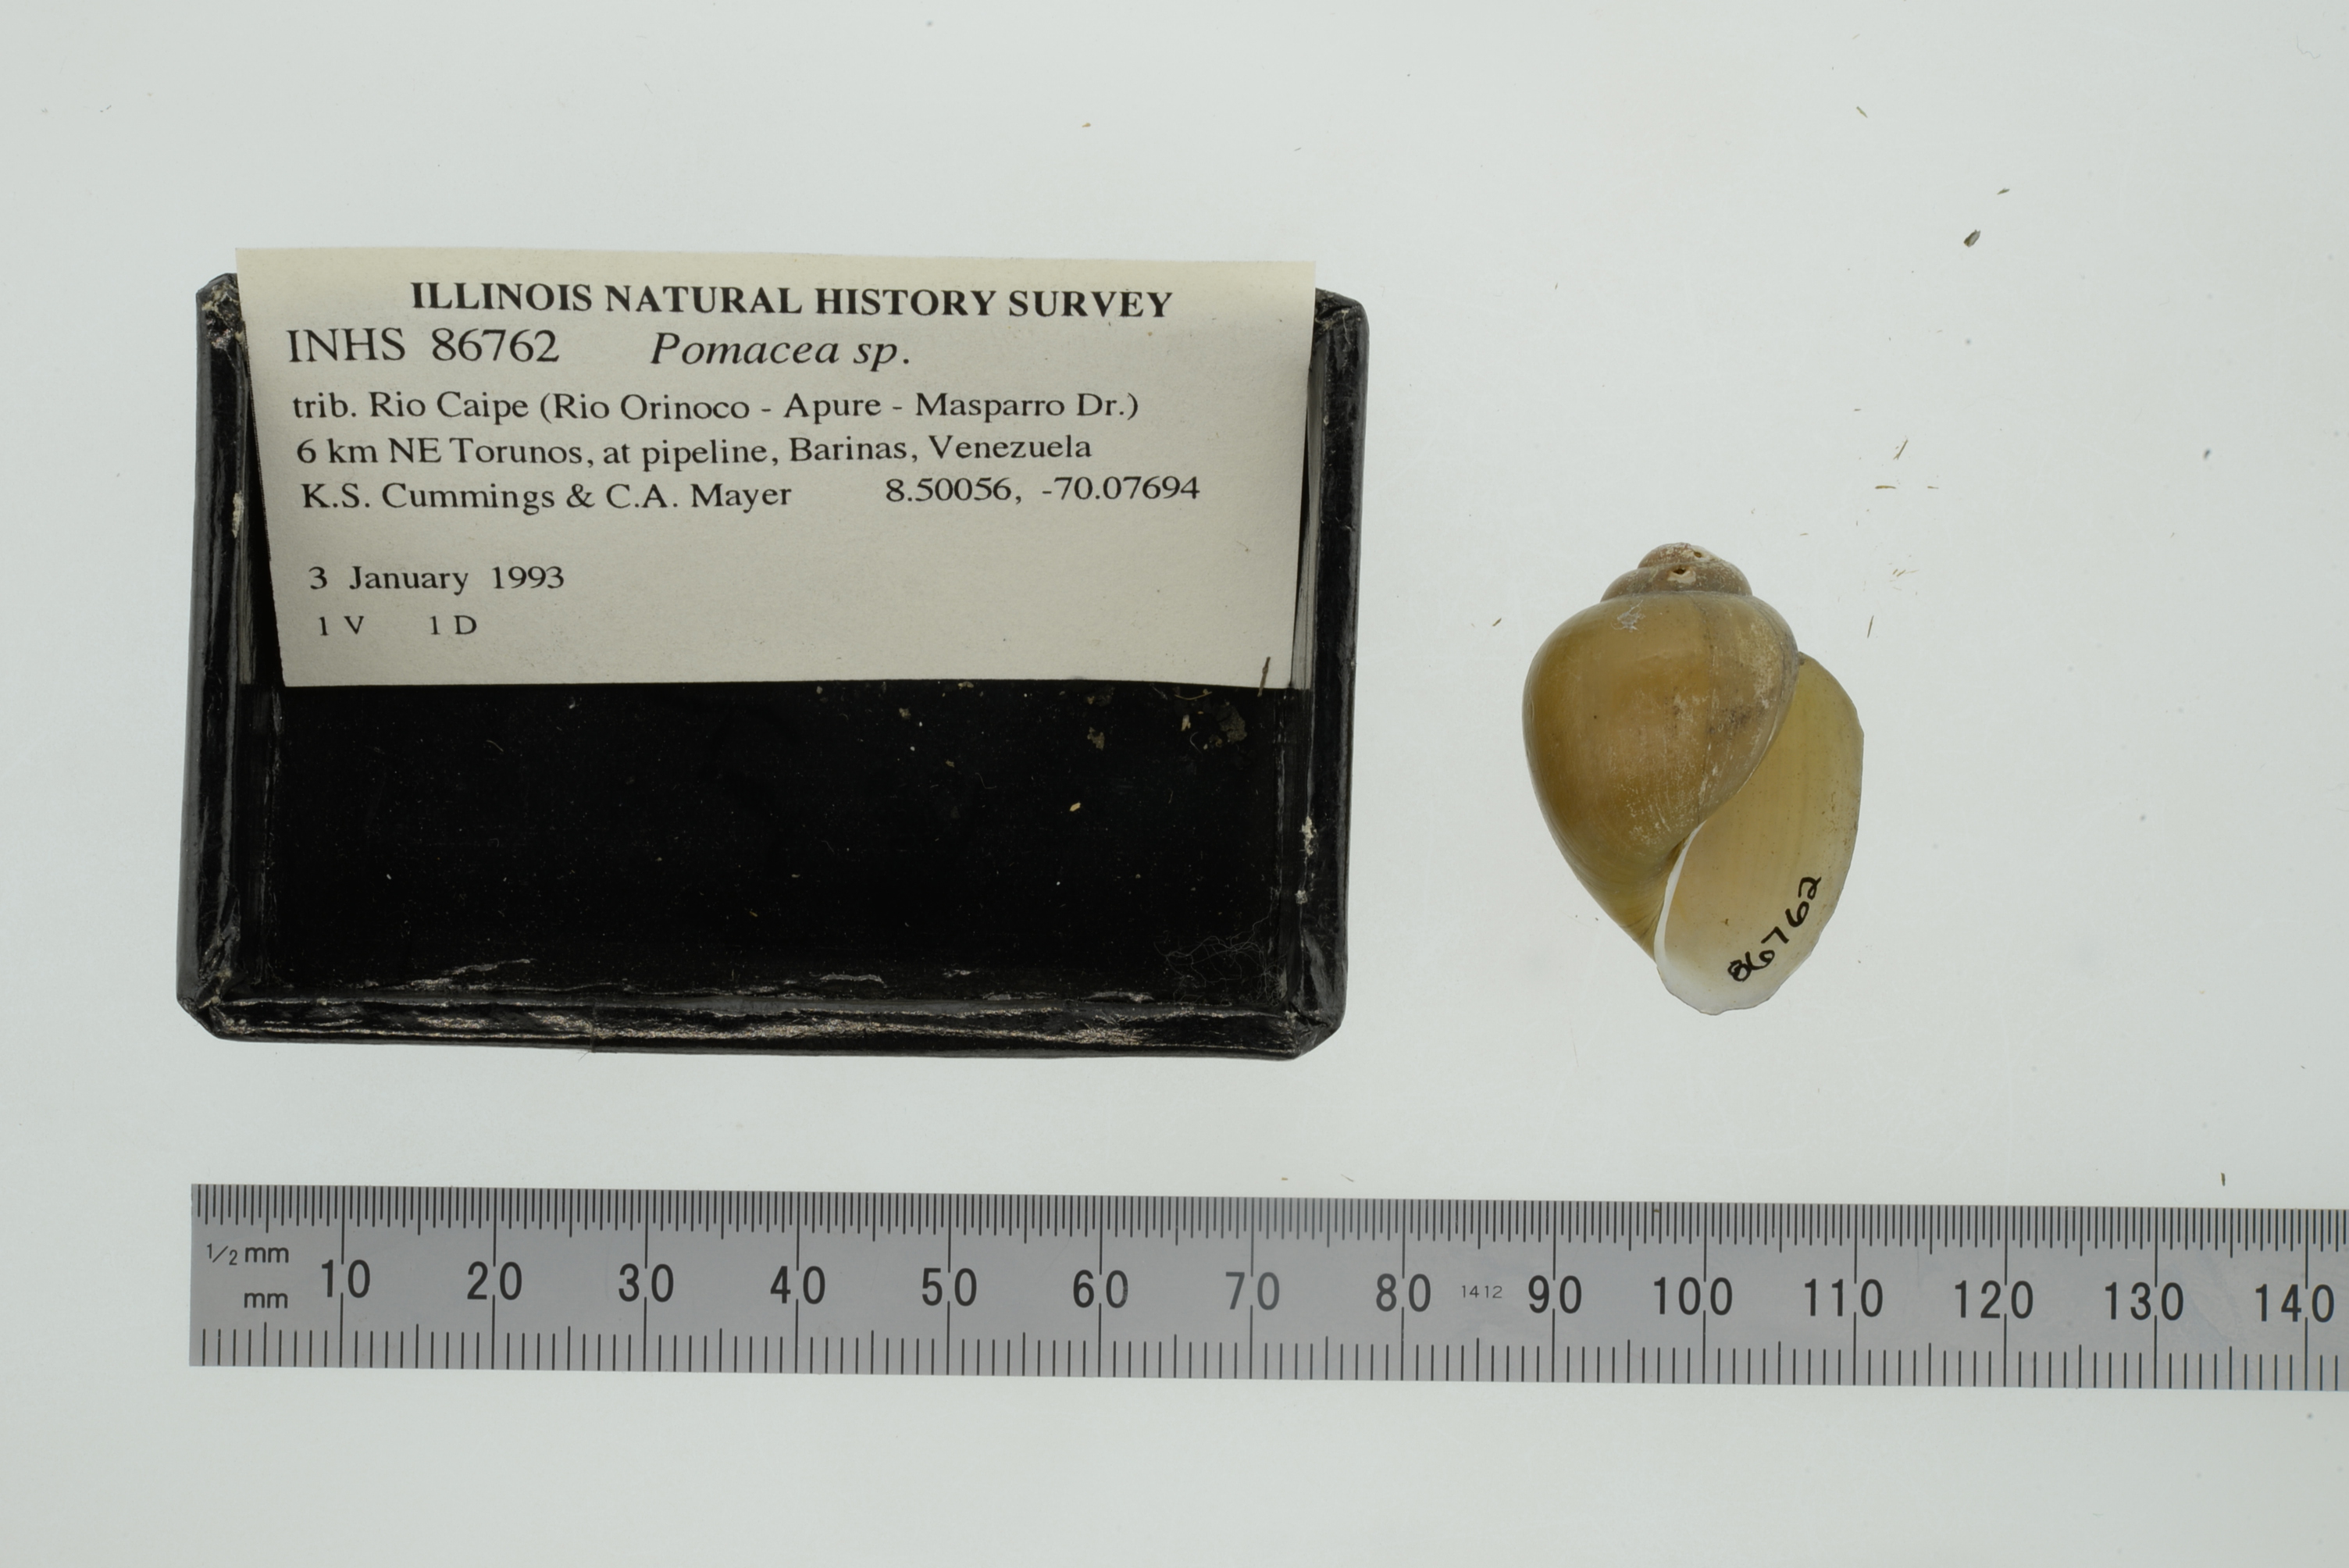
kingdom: Animalia
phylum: Mollusca
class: Gastropoda
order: Architaenioglossa
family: Ampullariidae
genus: Pomacea
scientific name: Pomacea
